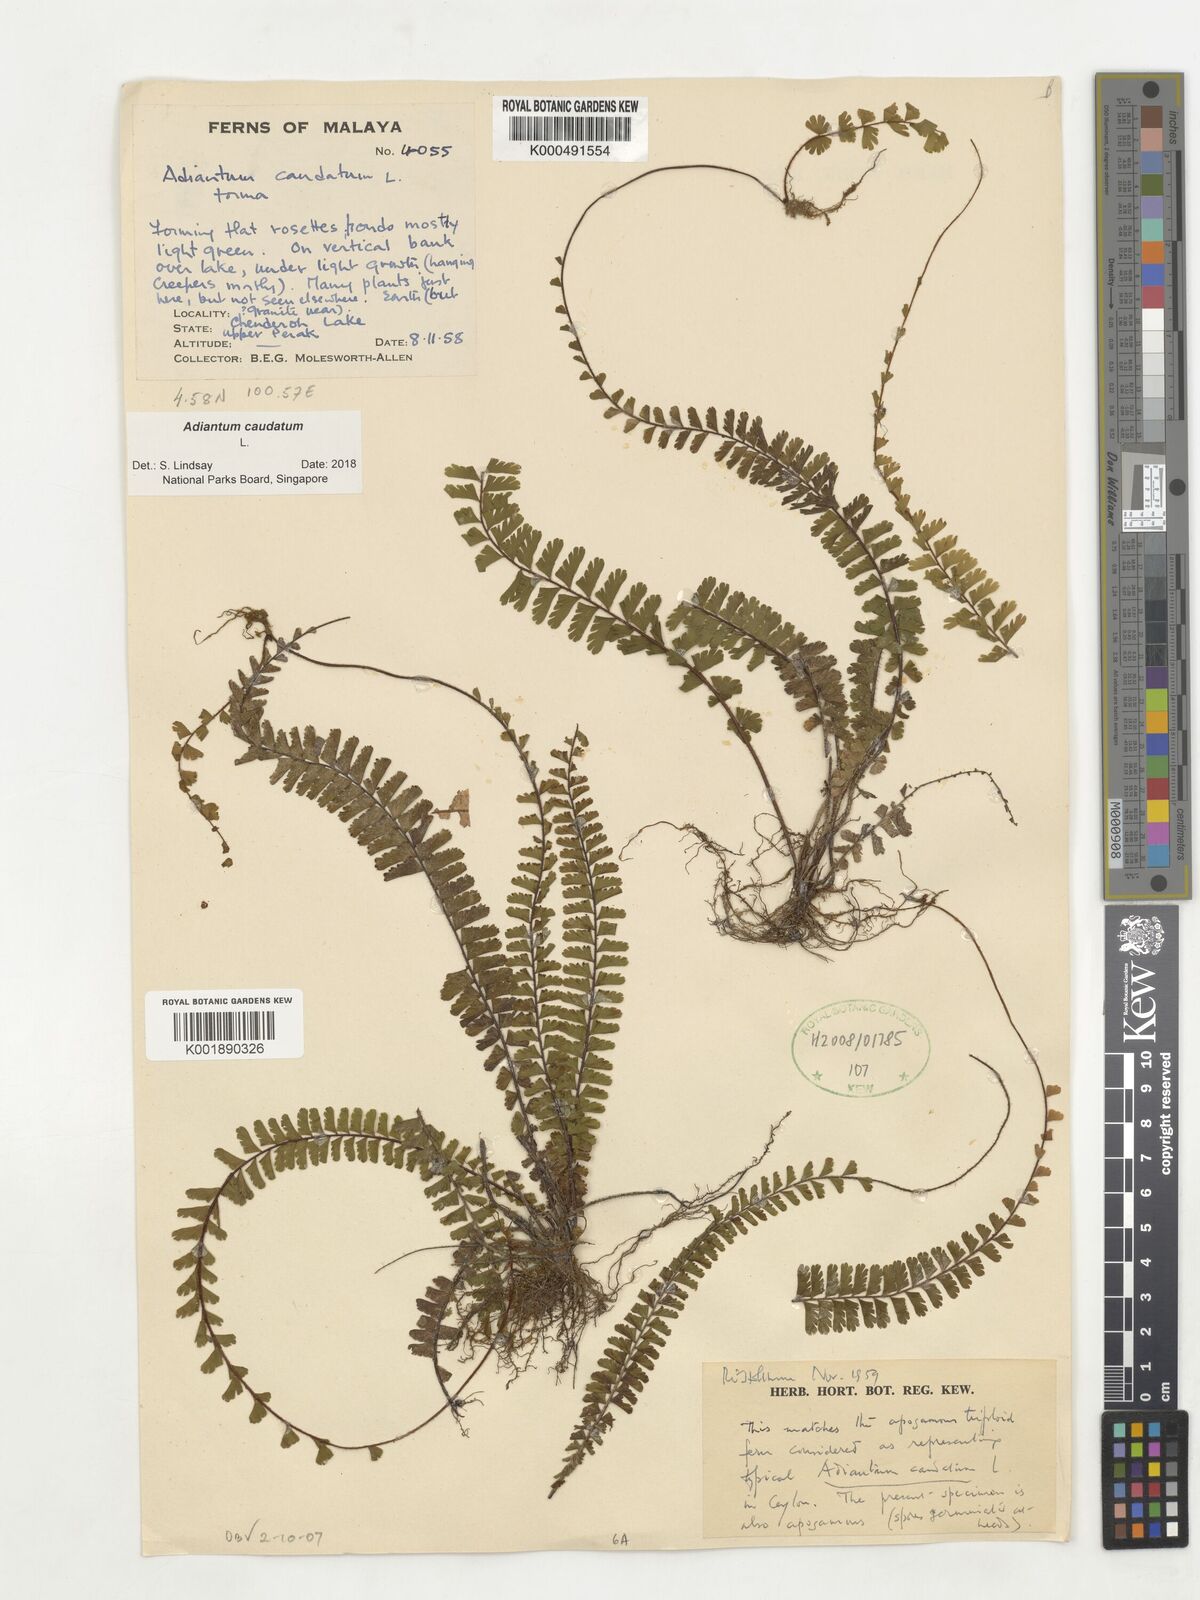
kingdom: Plantae
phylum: Tracheophyta
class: Polypodiopsida
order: Polypodiales
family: Pteridaceae
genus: Adiantum
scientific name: Adiantum caudatum
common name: Tailed maidenhair
